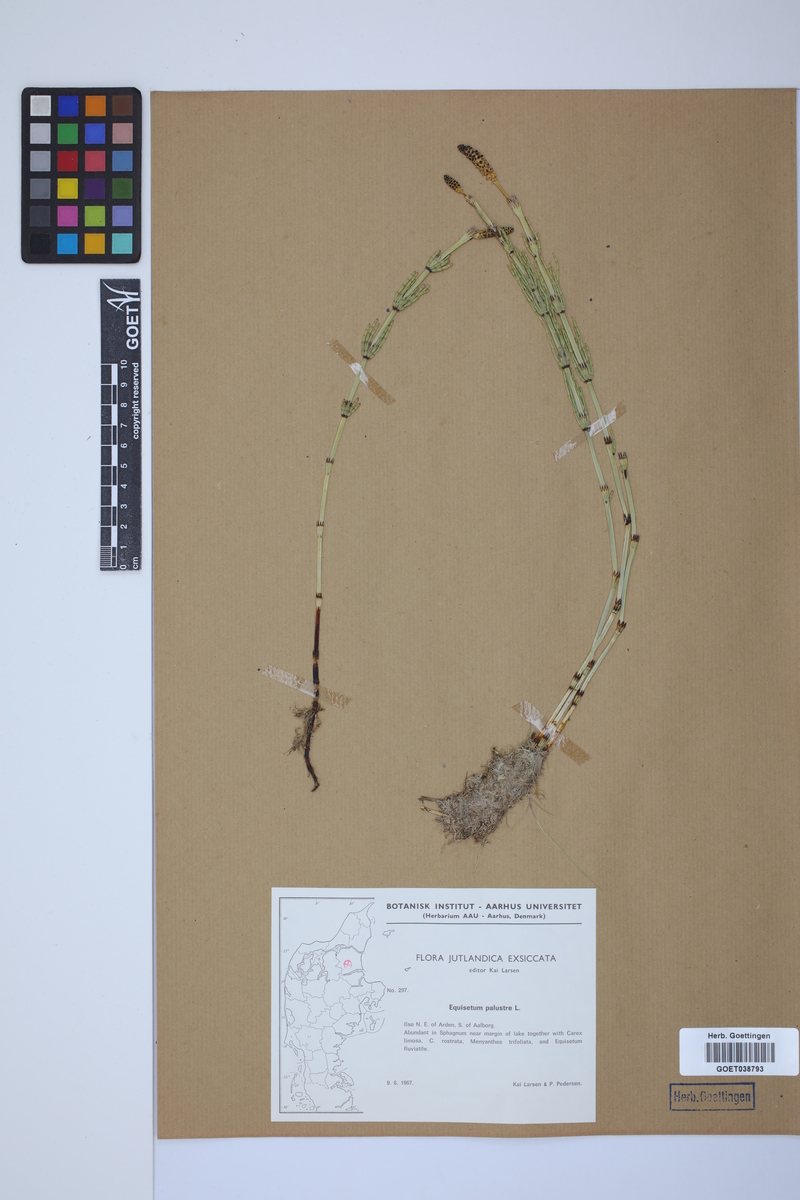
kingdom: Plantae
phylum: Tracheophyta
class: Polypodiopsida
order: Equisetales
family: Equisetaceae
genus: Equisetum
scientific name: Equisetum palustre
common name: Marsh horsetail
